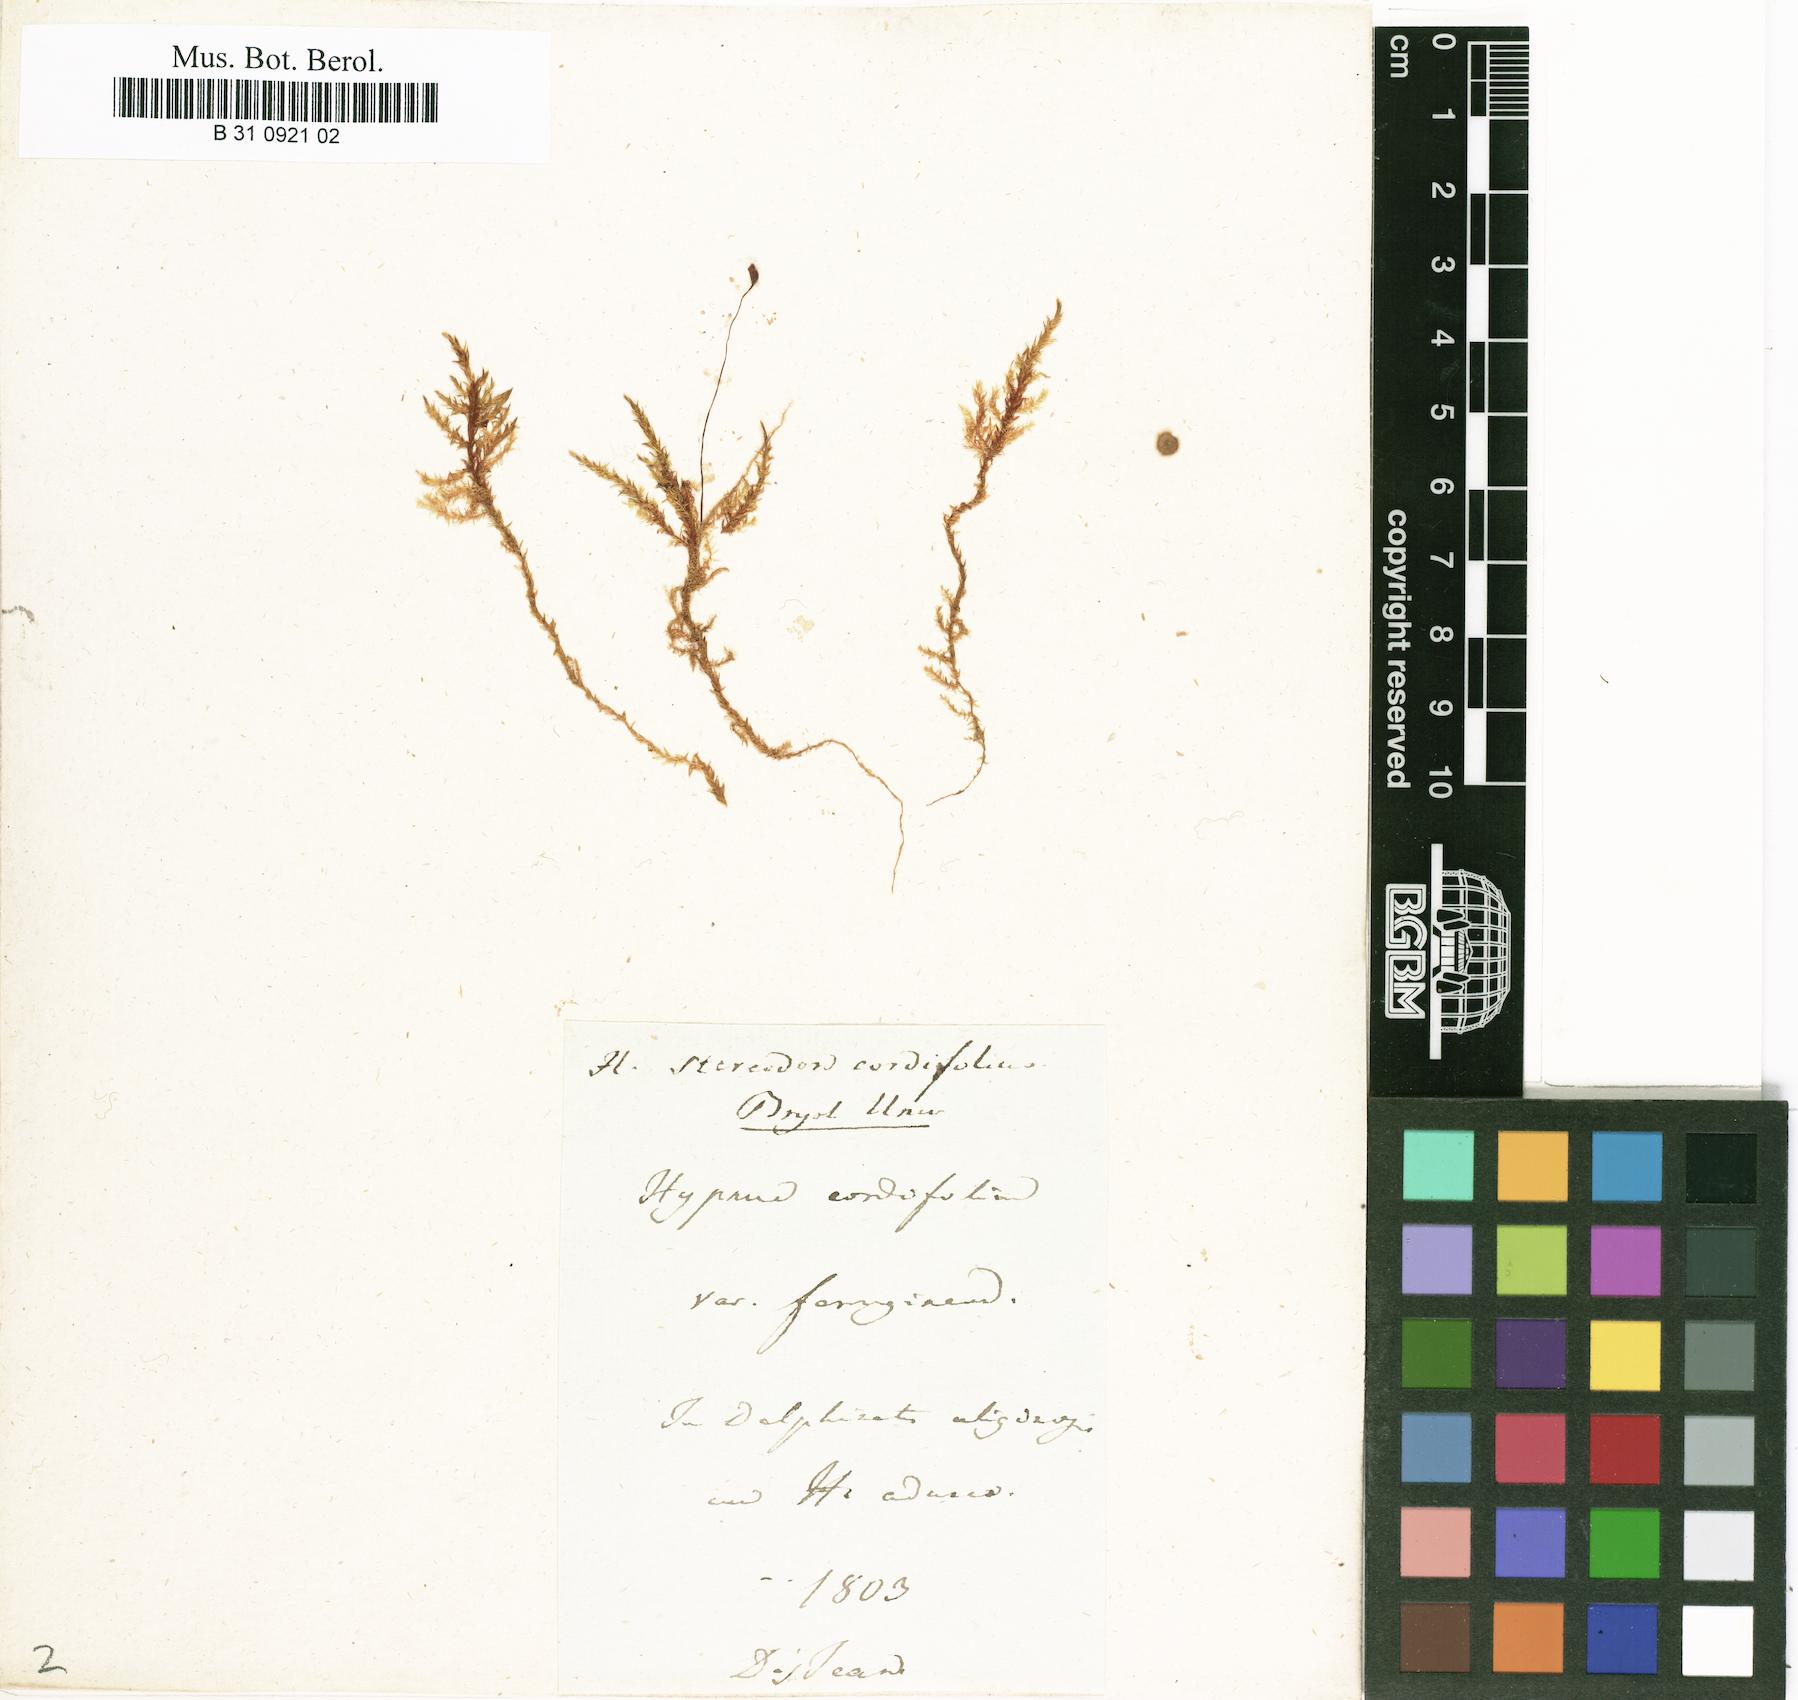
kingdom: Plantae
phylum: Bryophyta
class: Bryopsida
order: Hypnales
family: Calliergonaceae
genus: Calliergon
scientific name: Calliergon cordifolium
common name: Heart-leaved spear moss
